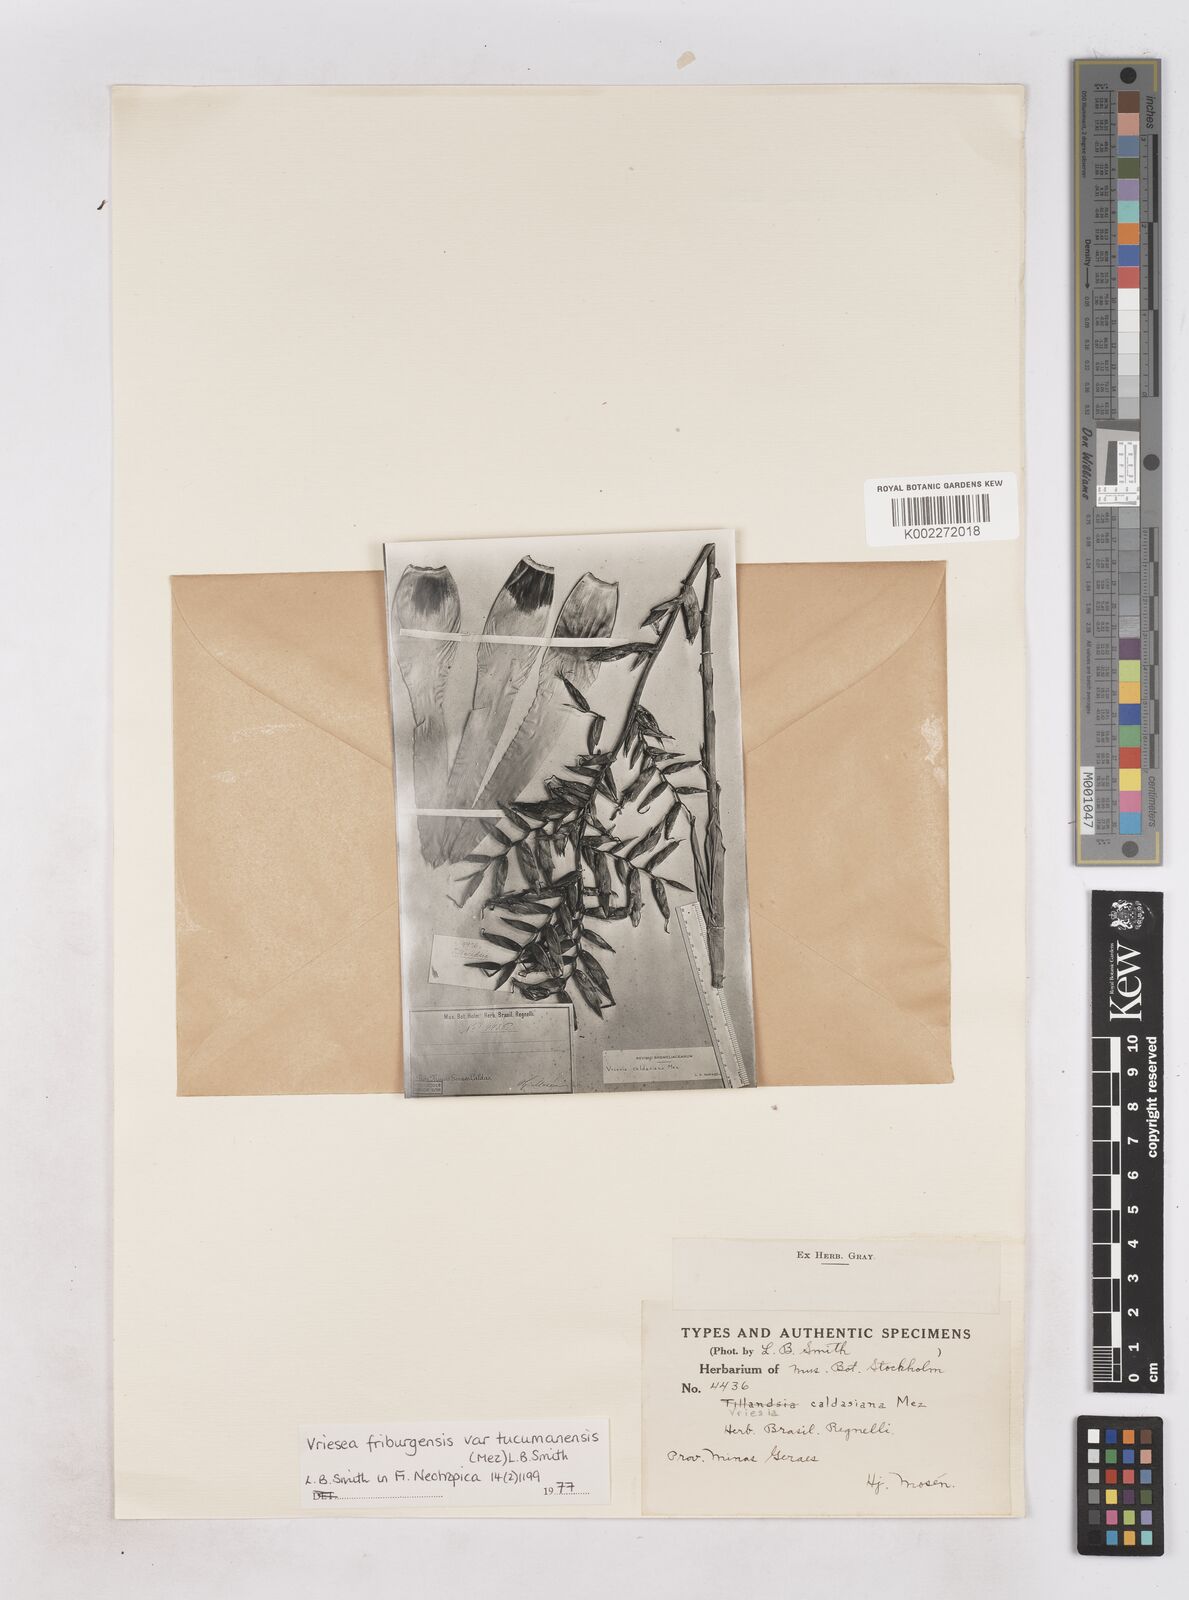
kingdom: Plantae
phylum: Tracheophyta
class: Liliopsida
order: Poales
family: Bromeliaceae
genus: Vriesea
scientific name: Vriesea friburgensis
